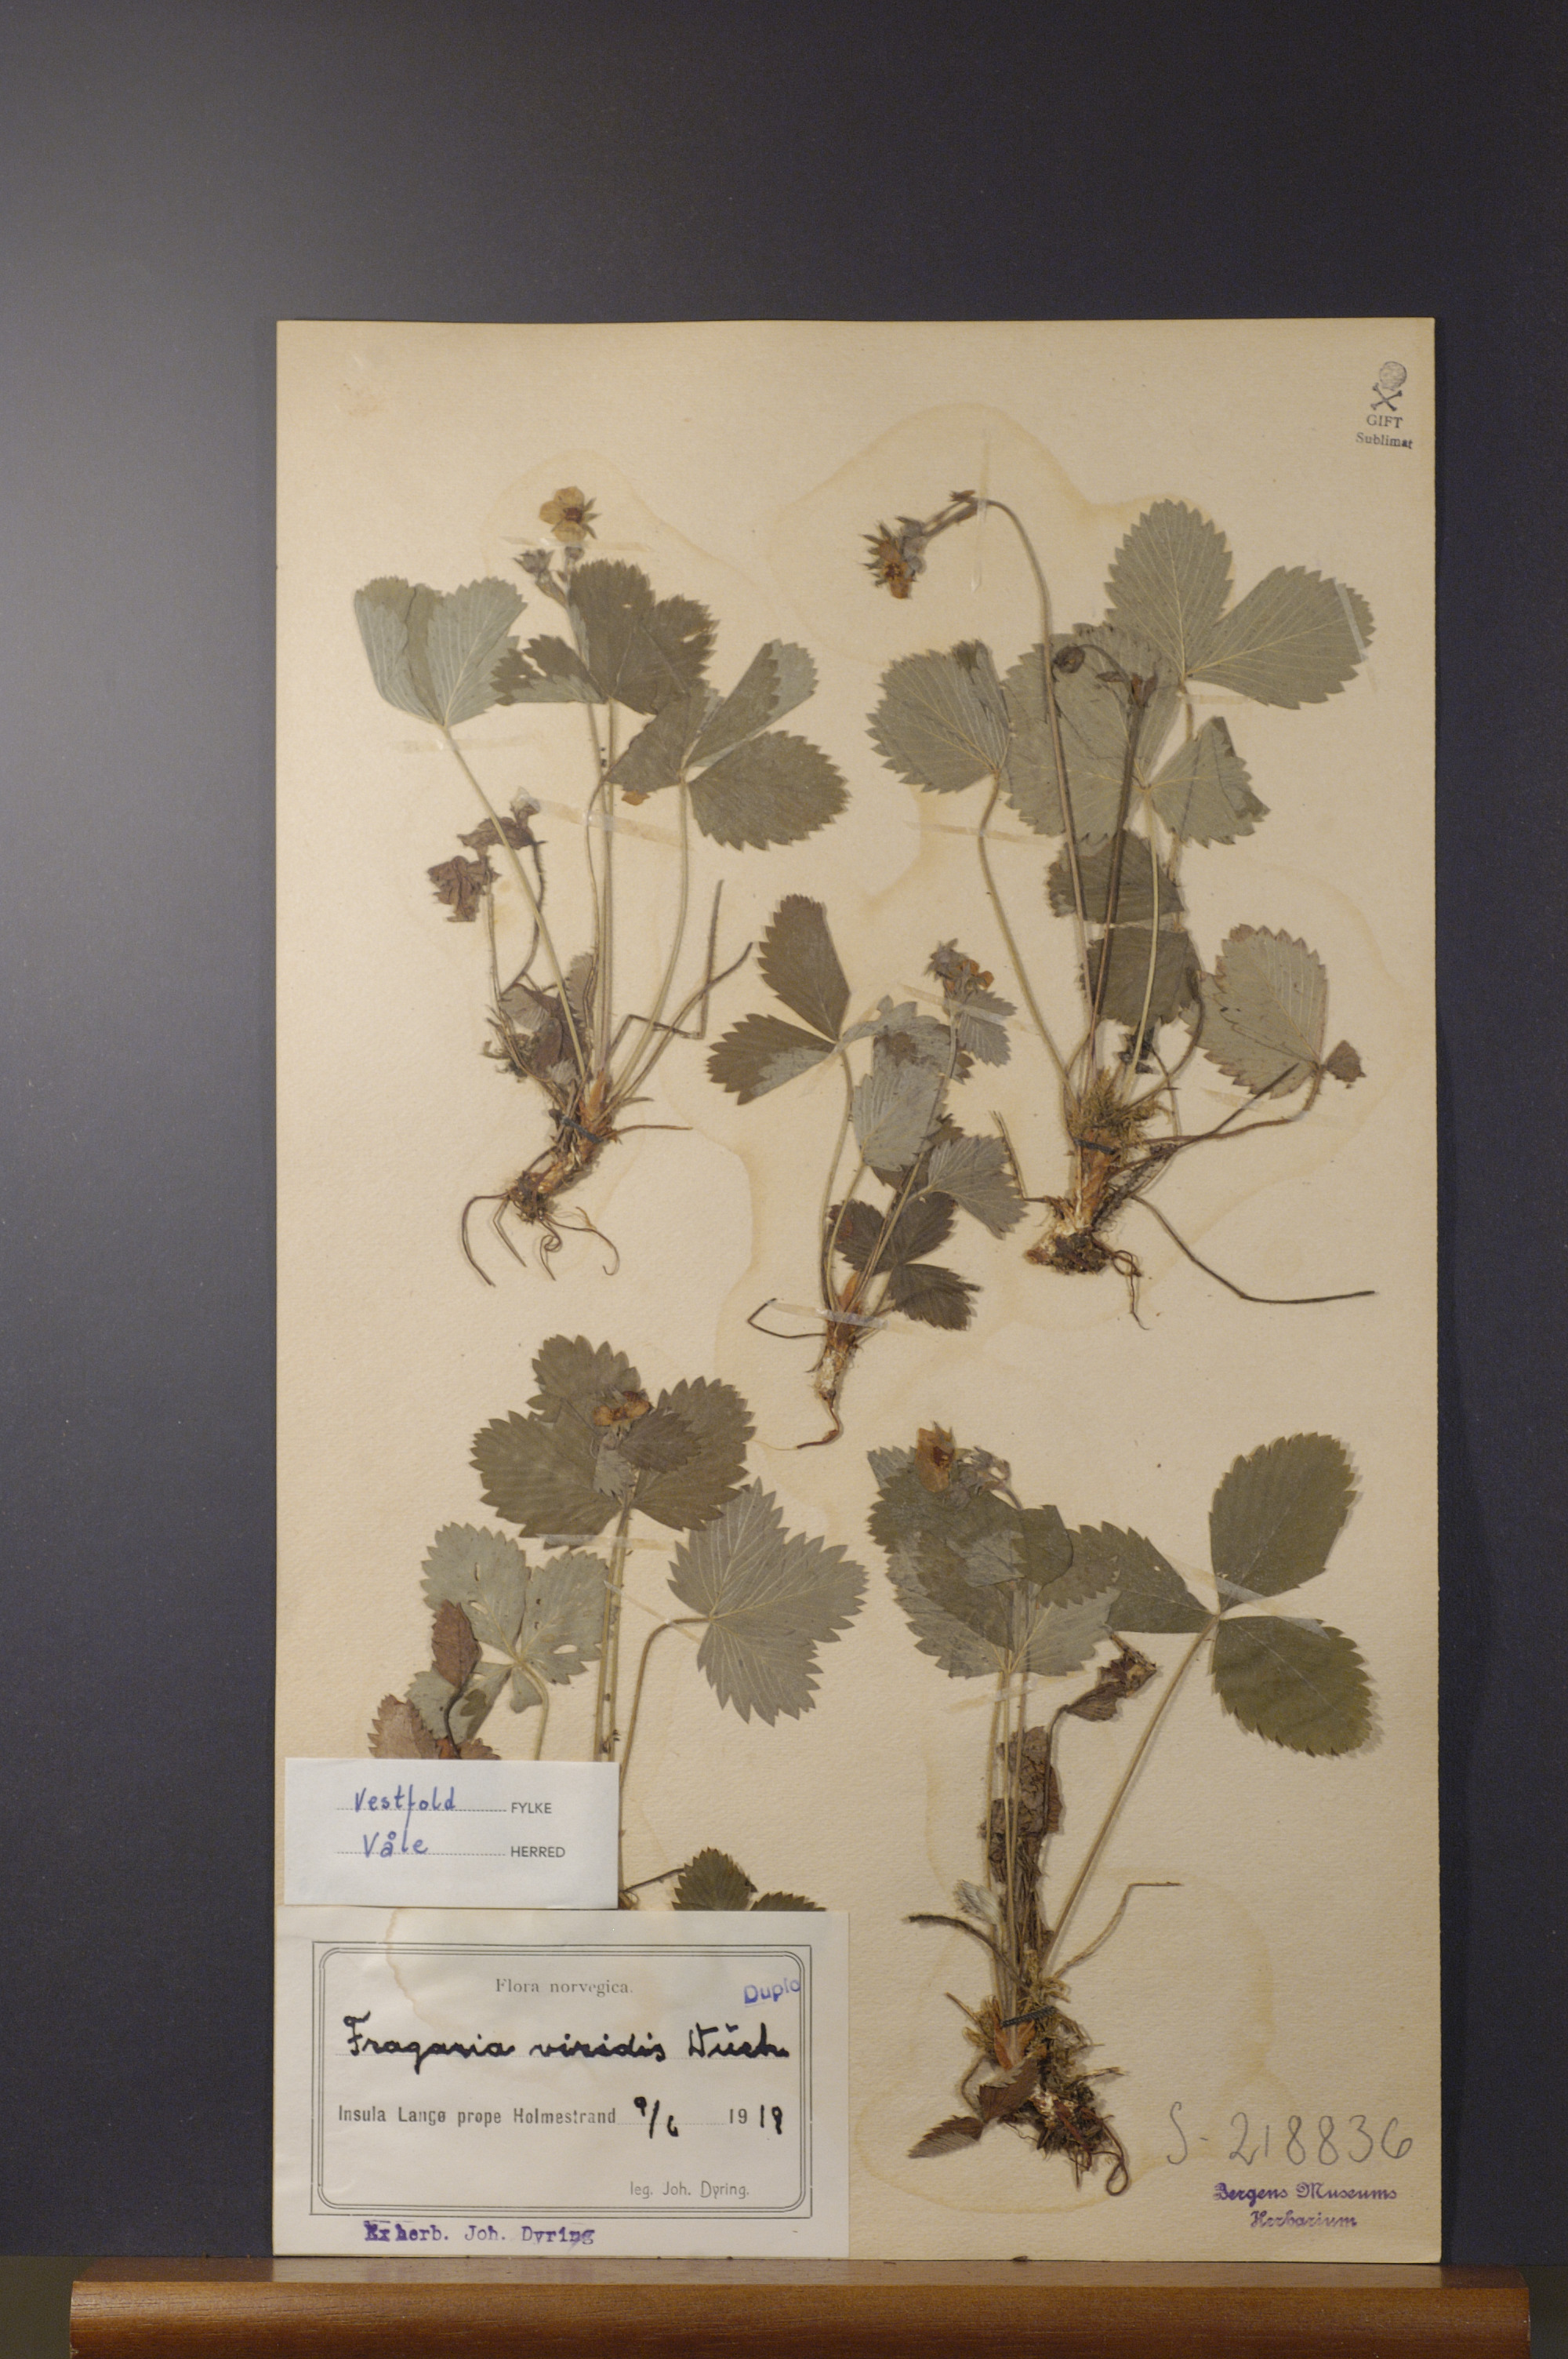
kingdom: Plantae
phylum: Tracheophyta
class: Magnoliopsida
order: Rosales
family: Rosaceae
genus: Fragaria
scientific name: Fragaria viridis
